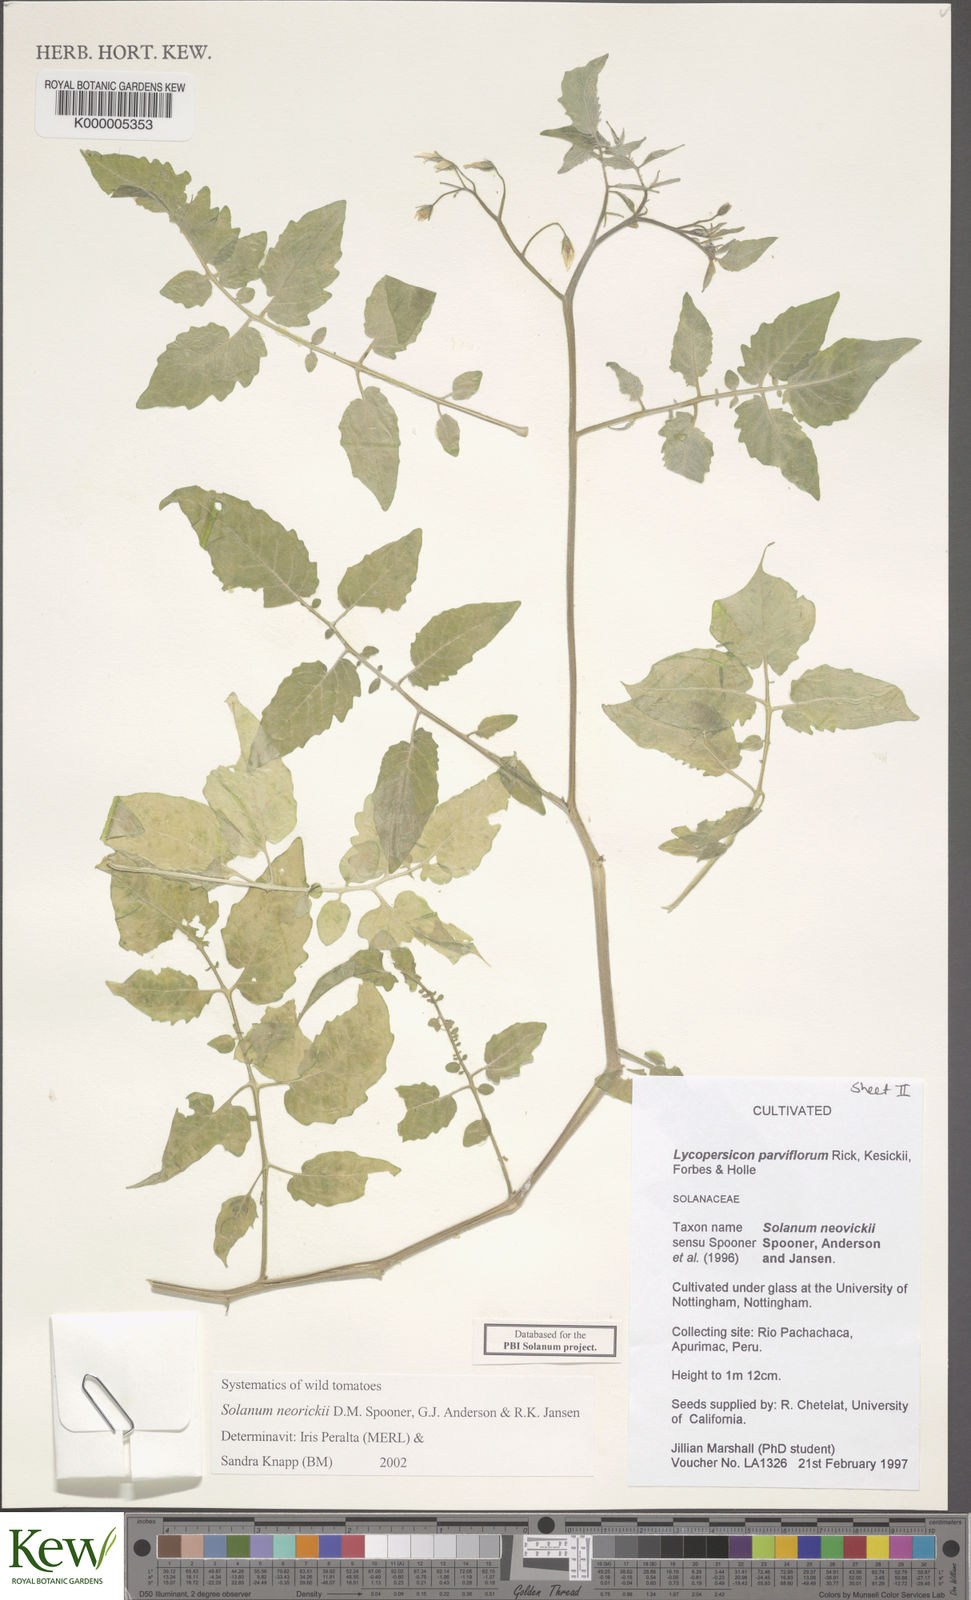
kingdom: Plantae
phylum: Tracheophyta
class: Magnoliopsida
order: Solanales
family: Solanaceae
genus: Solanum
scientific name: Solanum neorickii
